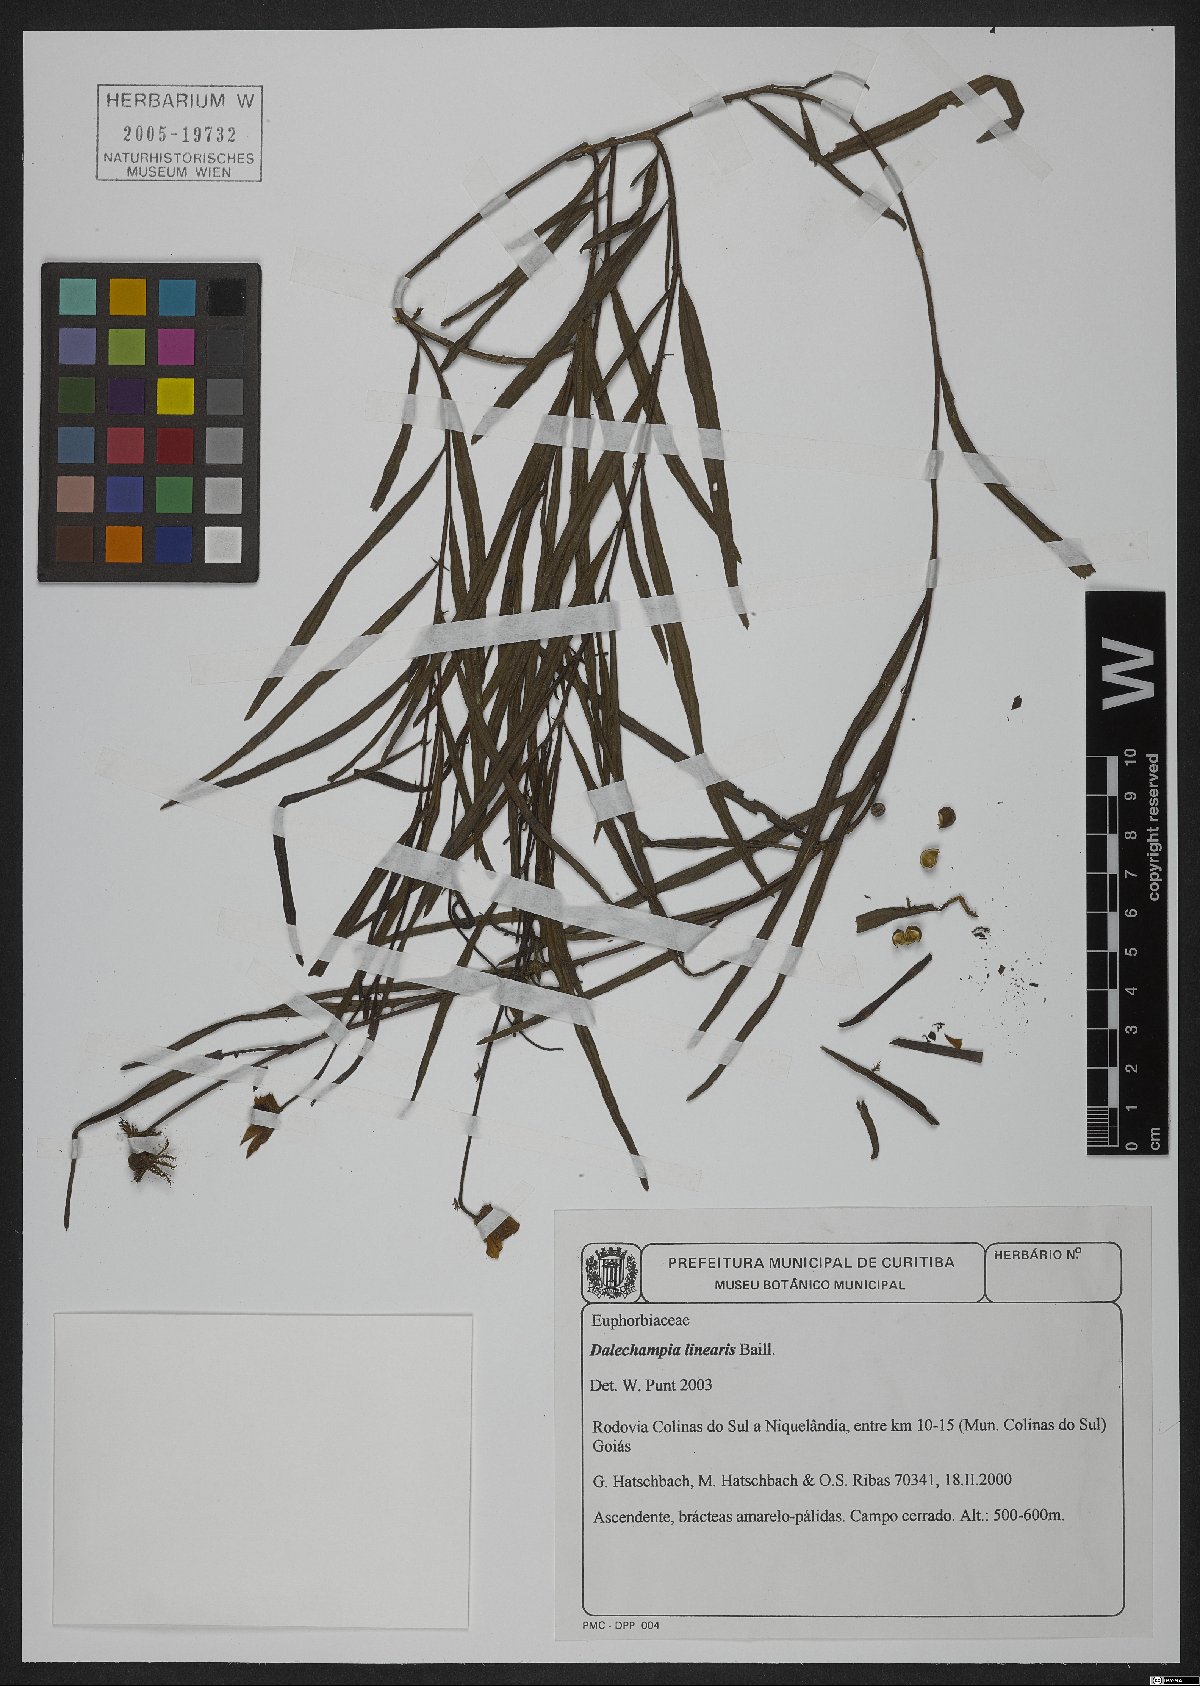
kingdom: Plantae
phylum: Tracheophyta
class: Magnoliopsida
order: Malpighiales
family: Euphorbiaceae
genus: Dalechampia
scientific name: Dalechampia linearis
